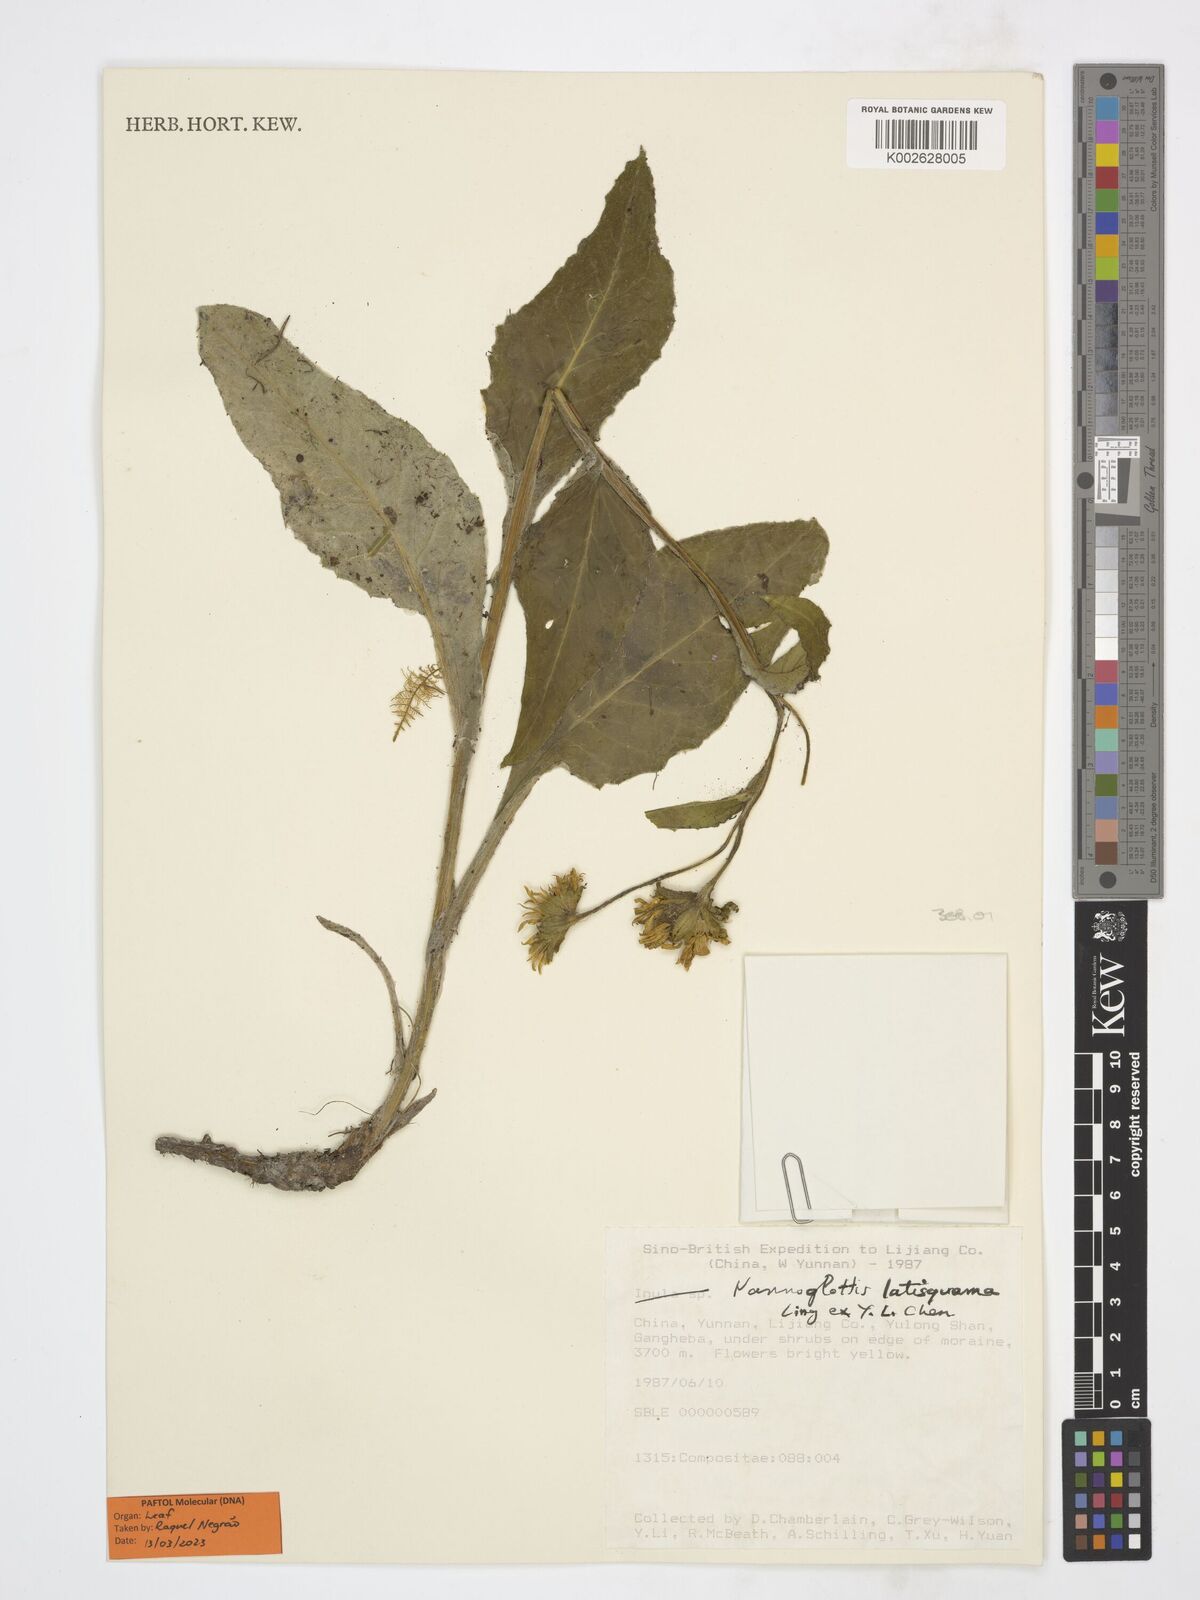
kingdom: Plantae
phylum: Tracheophyta
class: Magnoliopsida
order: Asterales
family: Asteraceae
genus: Nannoglottis
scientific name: Nannoglottis latisquama
